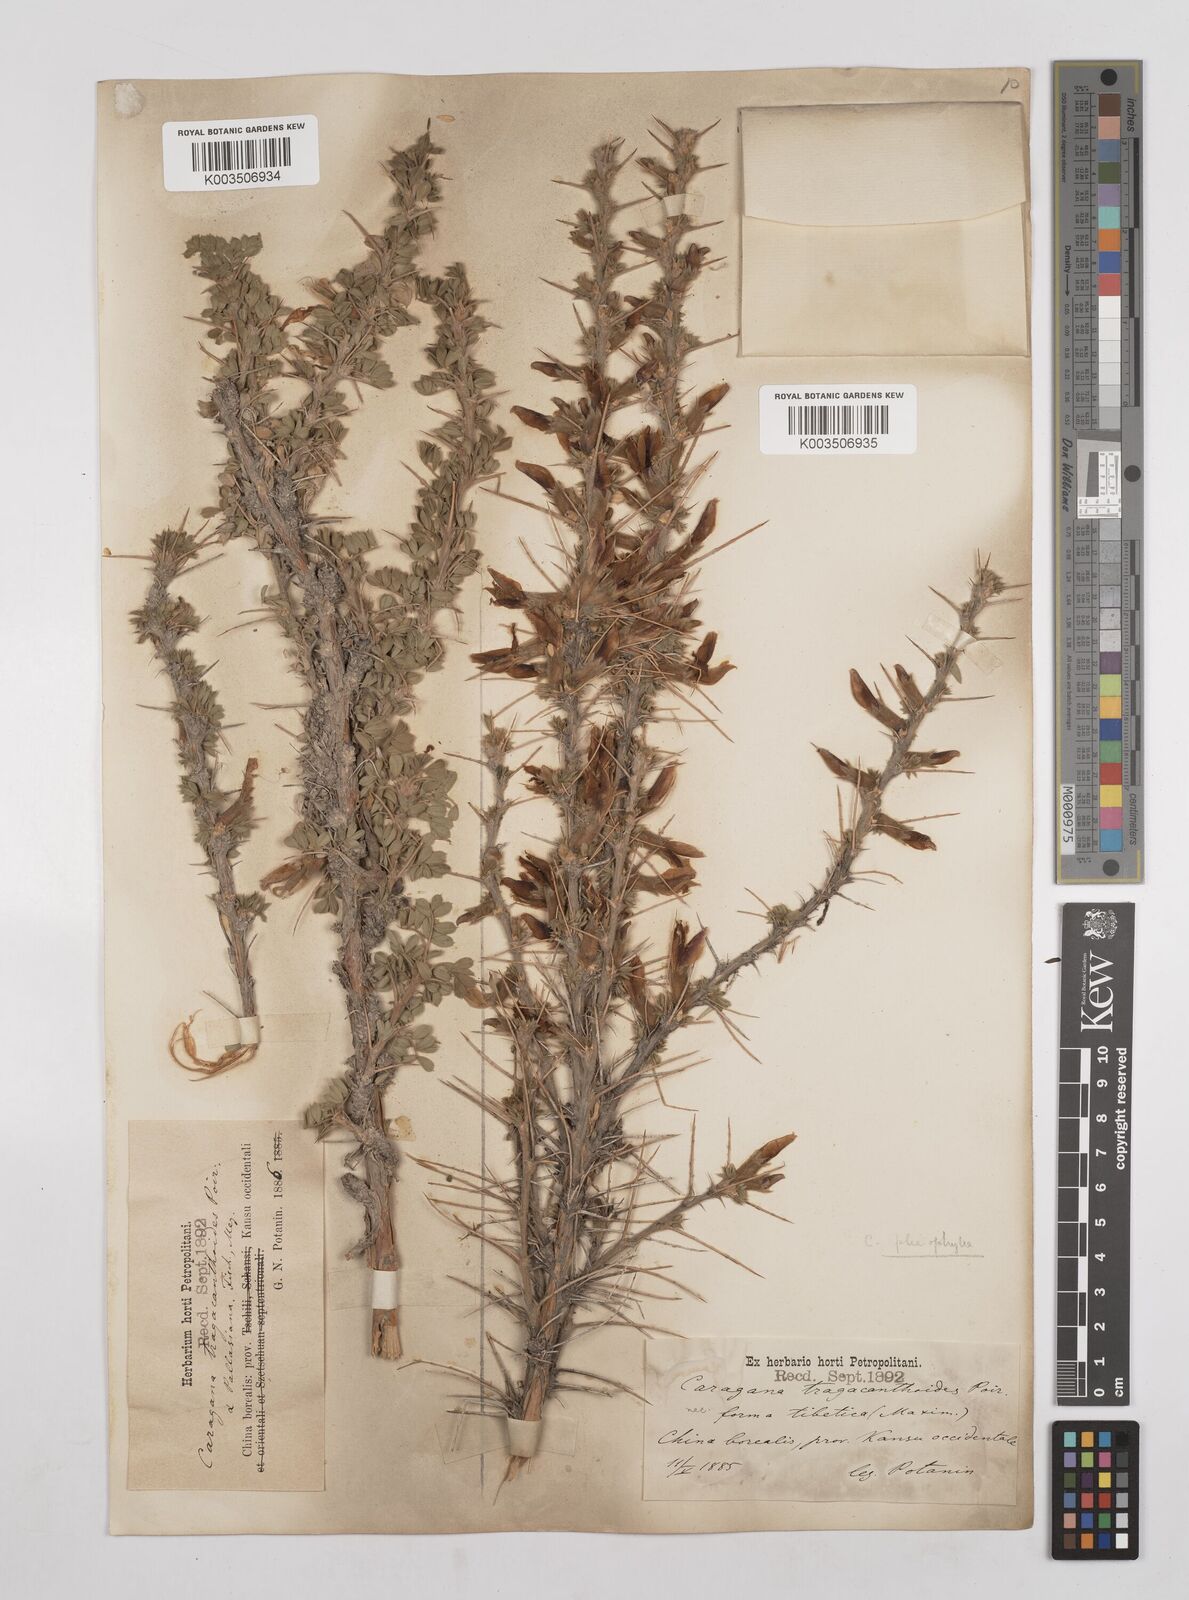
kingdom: Plantae
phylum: Tracheophyta
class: Magnoliopsida
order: Fabales
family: Fabaceae
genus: Caragana
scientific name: Caragana tragacanthoides
